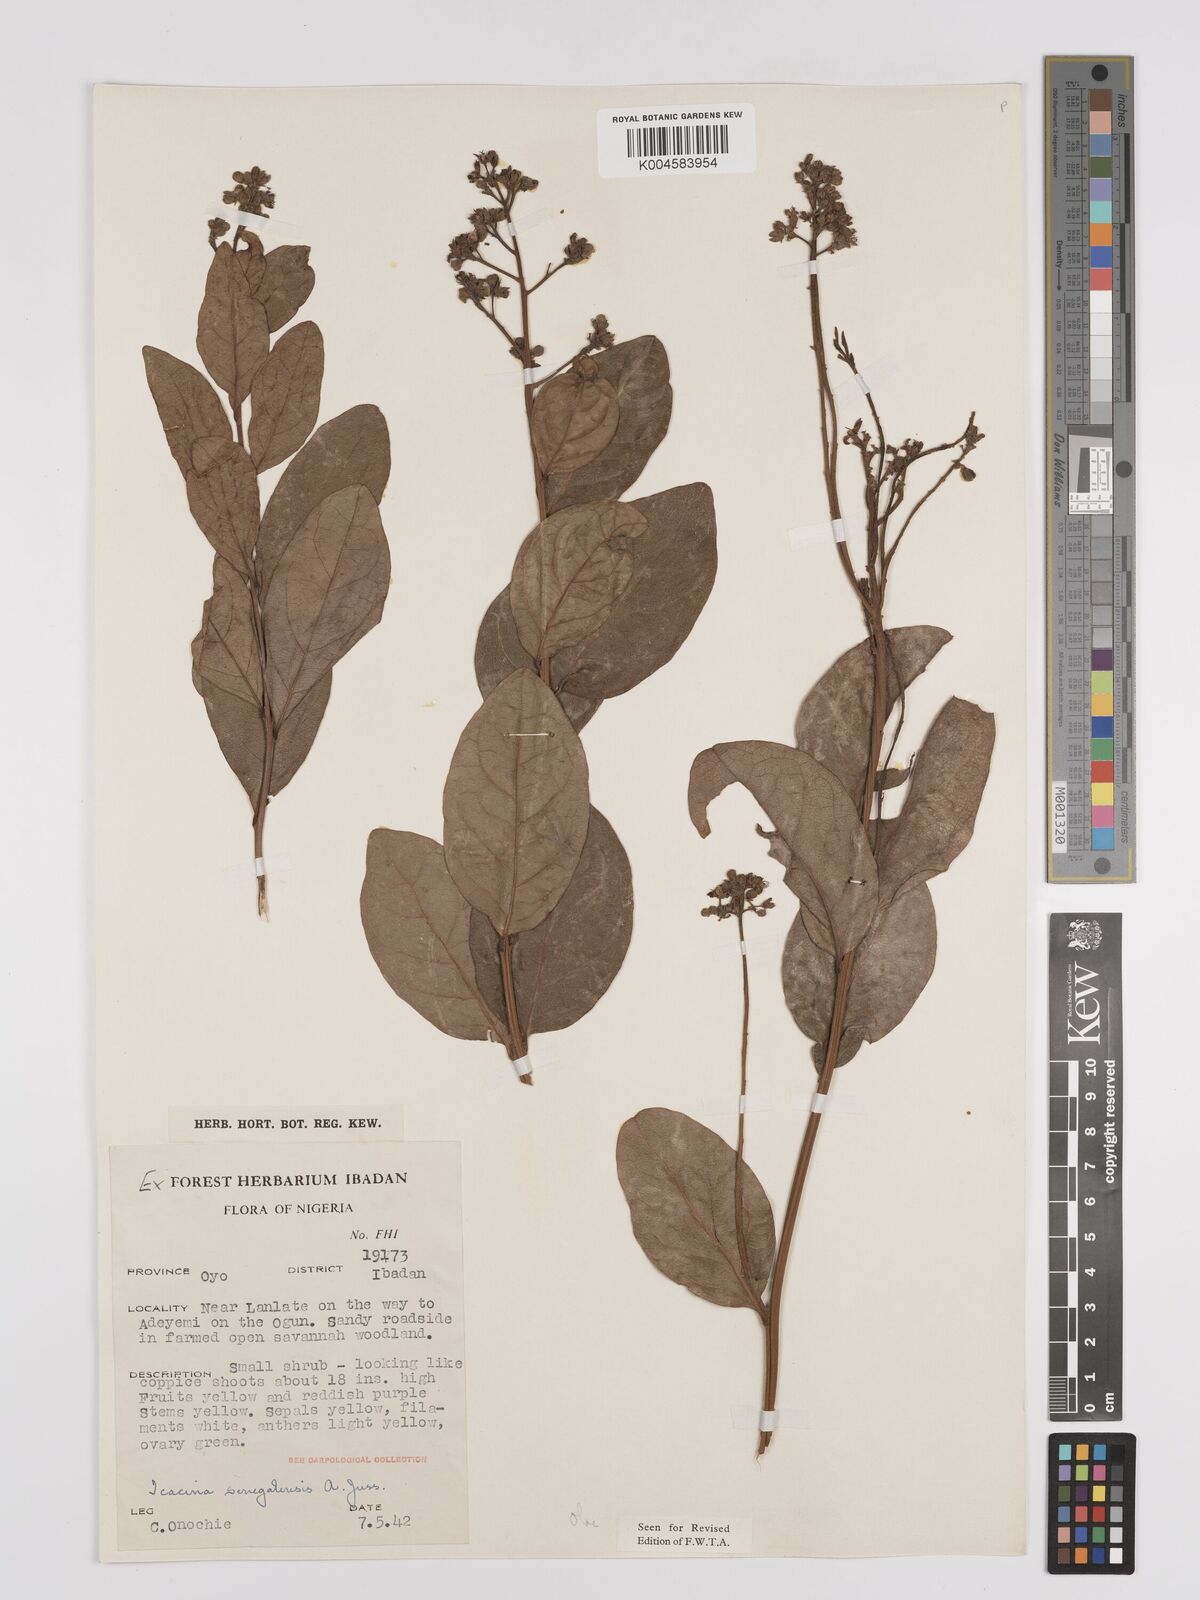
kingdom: Plantae
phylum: Tracheophyta
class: Magnoliopsida
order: Icacinales
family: Icacinaceae
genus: Icacina
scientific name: Icacina oliviformis
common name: False yam
